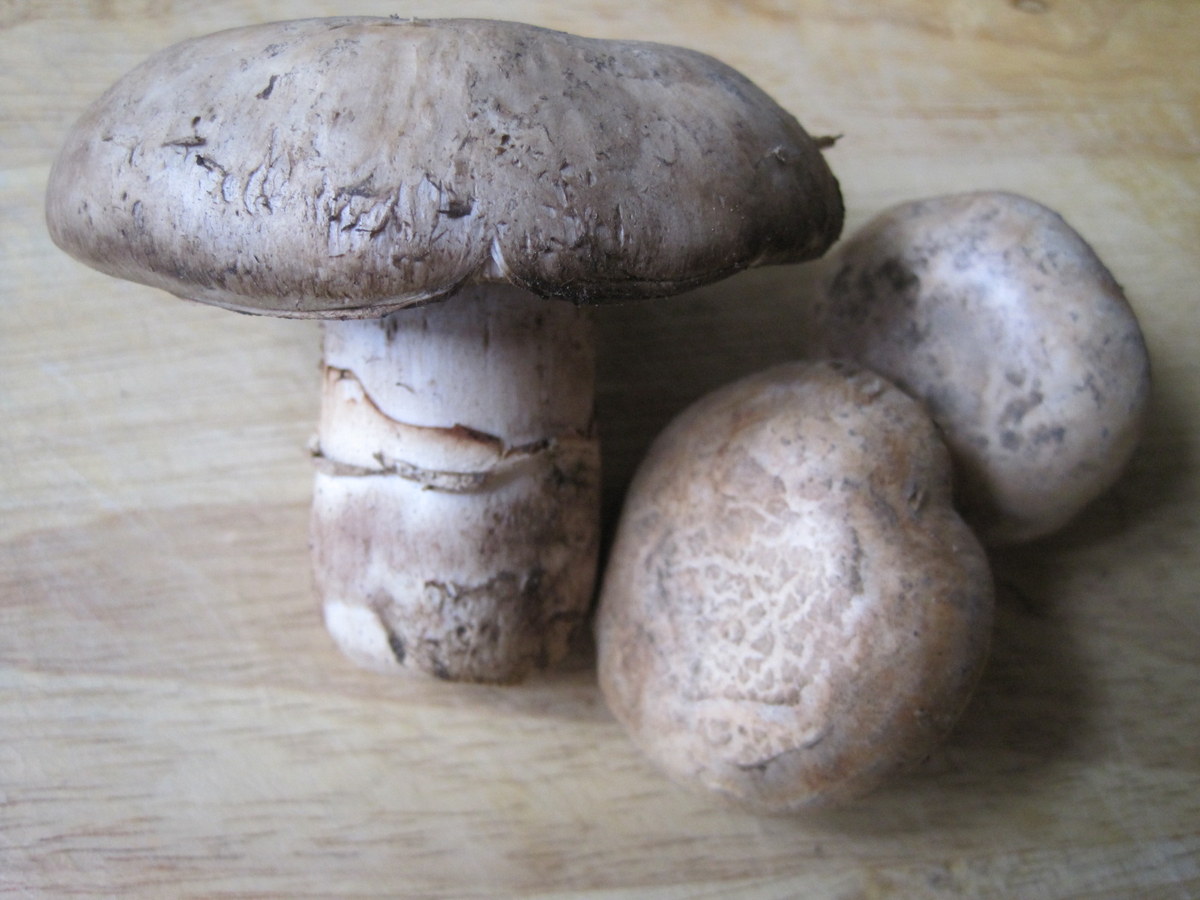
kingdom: Fungi
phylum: Basidiomycota
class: Agaricomycetes
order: Agaricales
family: Agaricaceae
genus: Agaricus
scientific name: Agaricus bisporus
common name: have-champignon
